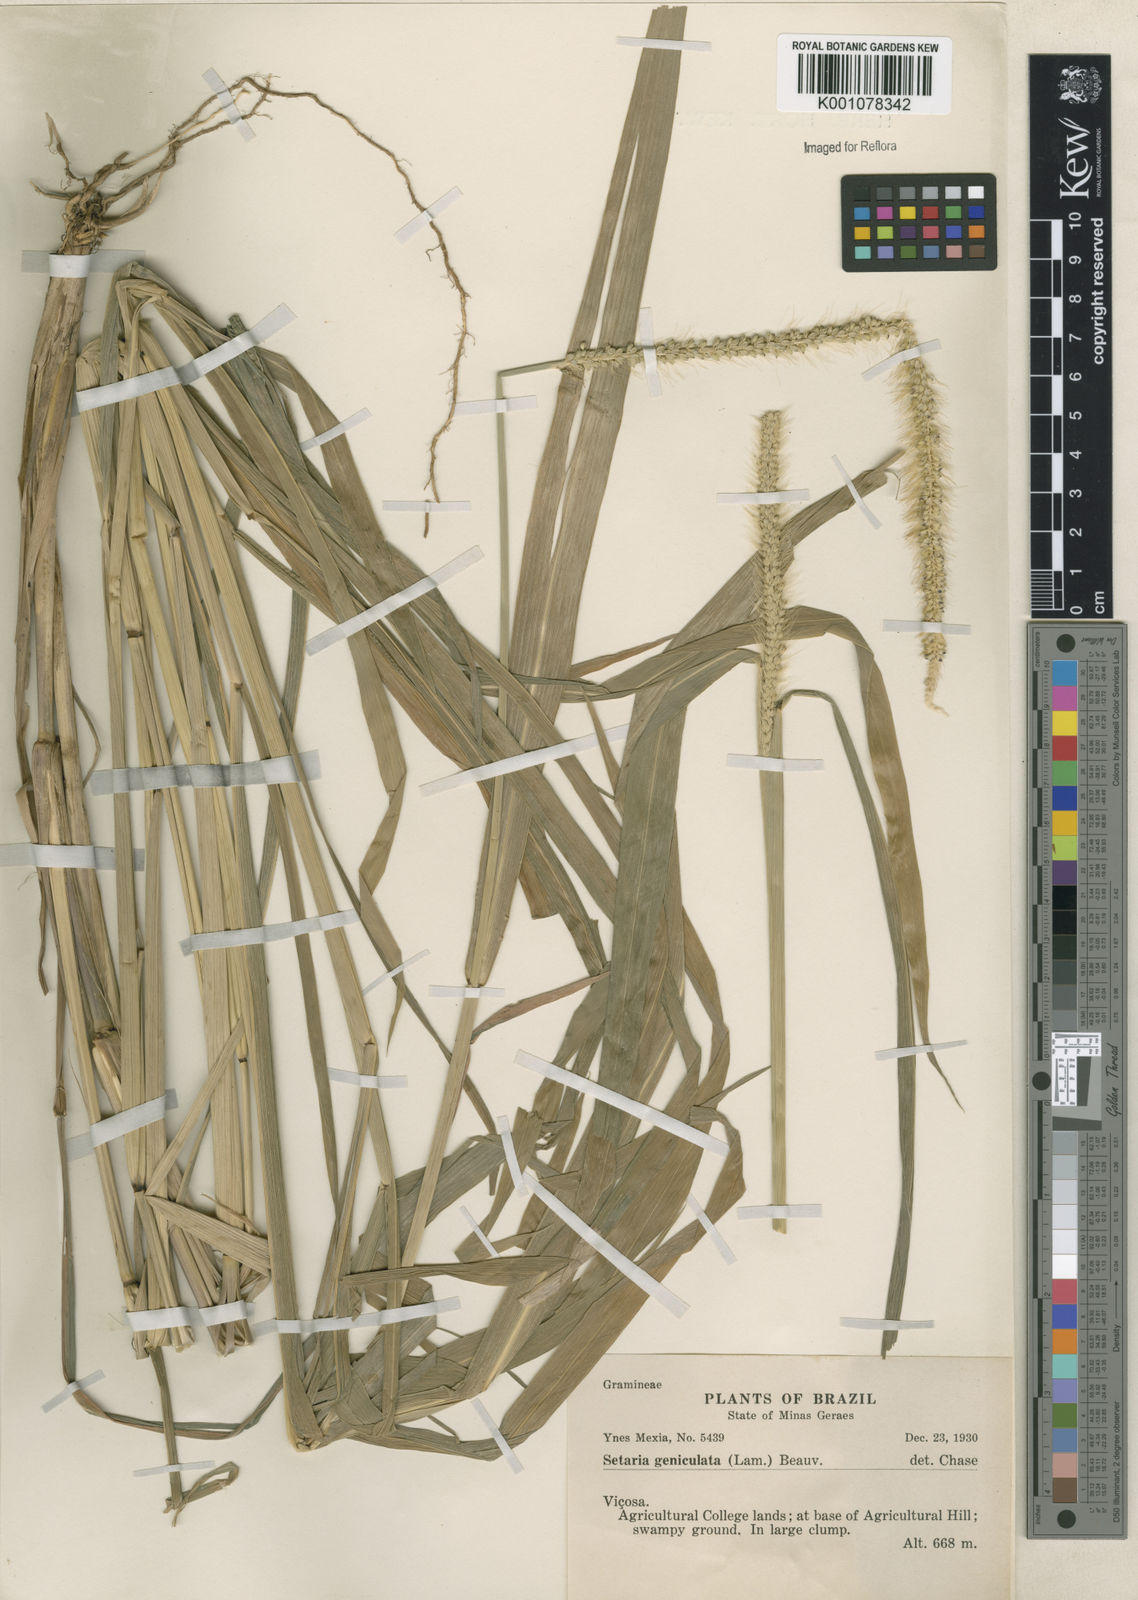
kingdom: Plantae
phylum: Tracheophyta
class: Liliopsida
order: Poales
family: Poaceae
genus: Setaria
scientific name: Setaria parviflora
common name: Knotroot bristle-grass
